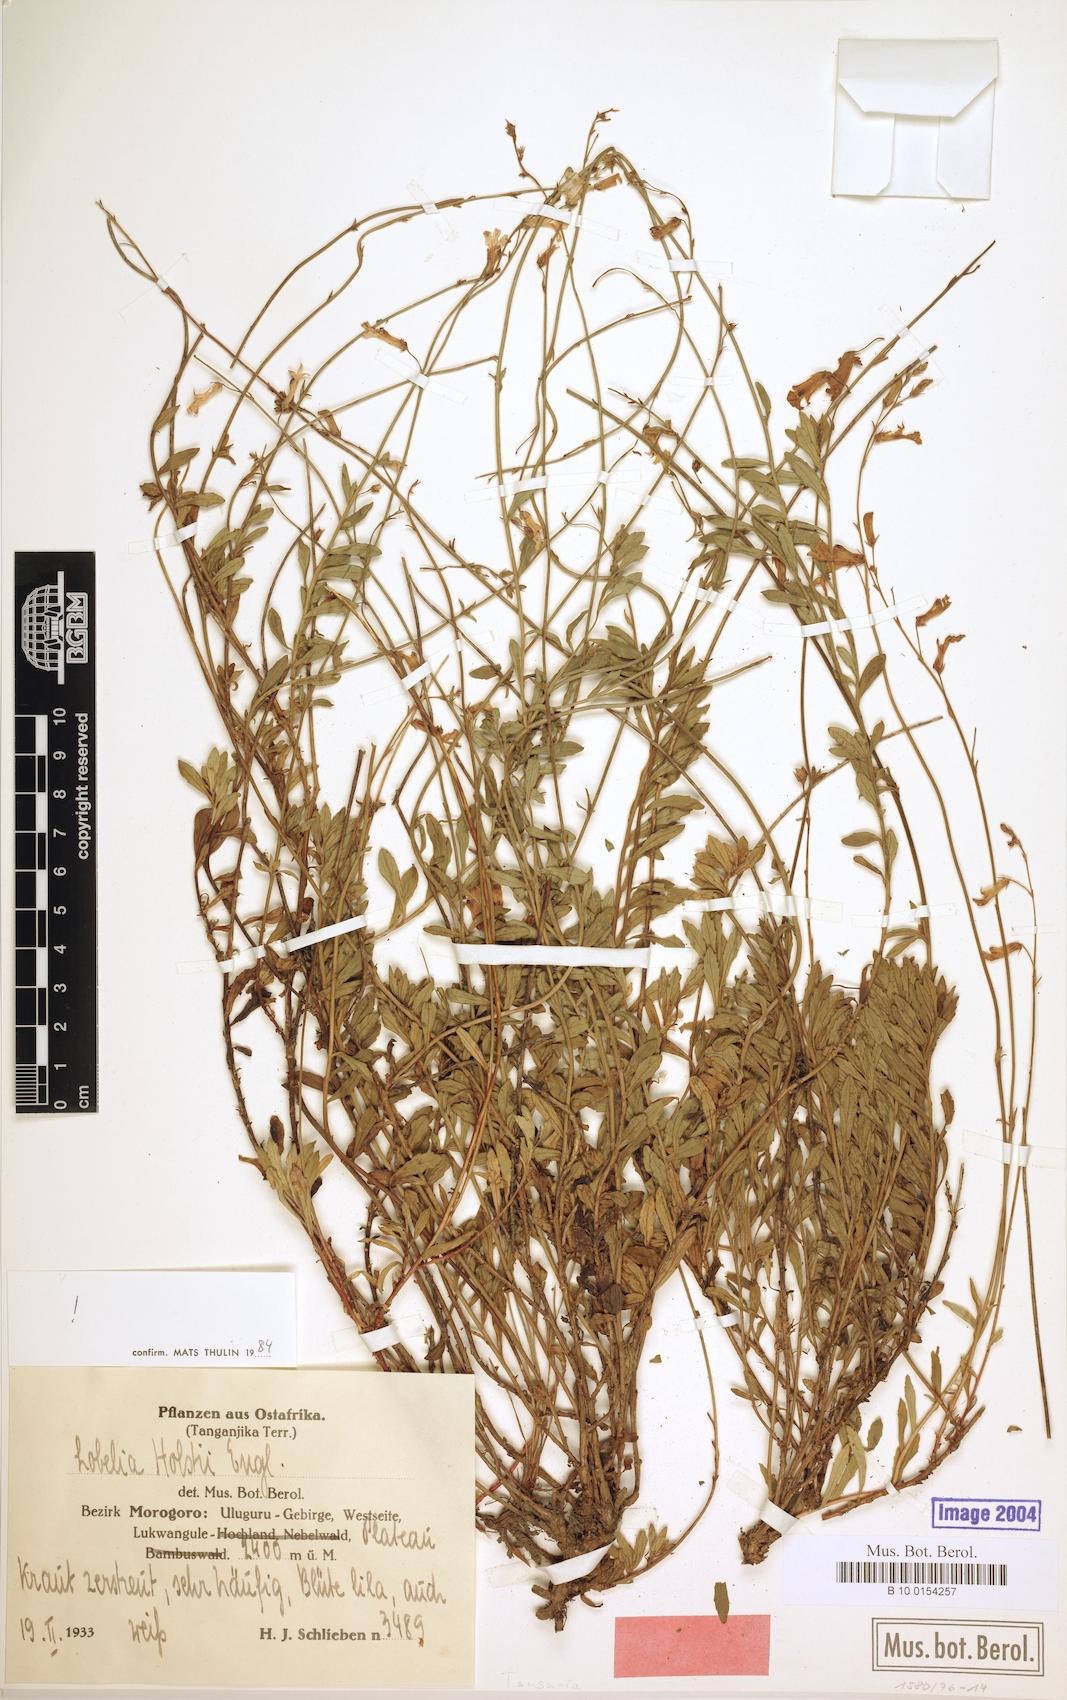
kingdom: Plantae
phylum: Tracheophyta
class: Magnoliopsida
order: Asterales
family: Campanulaceae
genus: Lobelia
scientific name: Lobelia holstii
